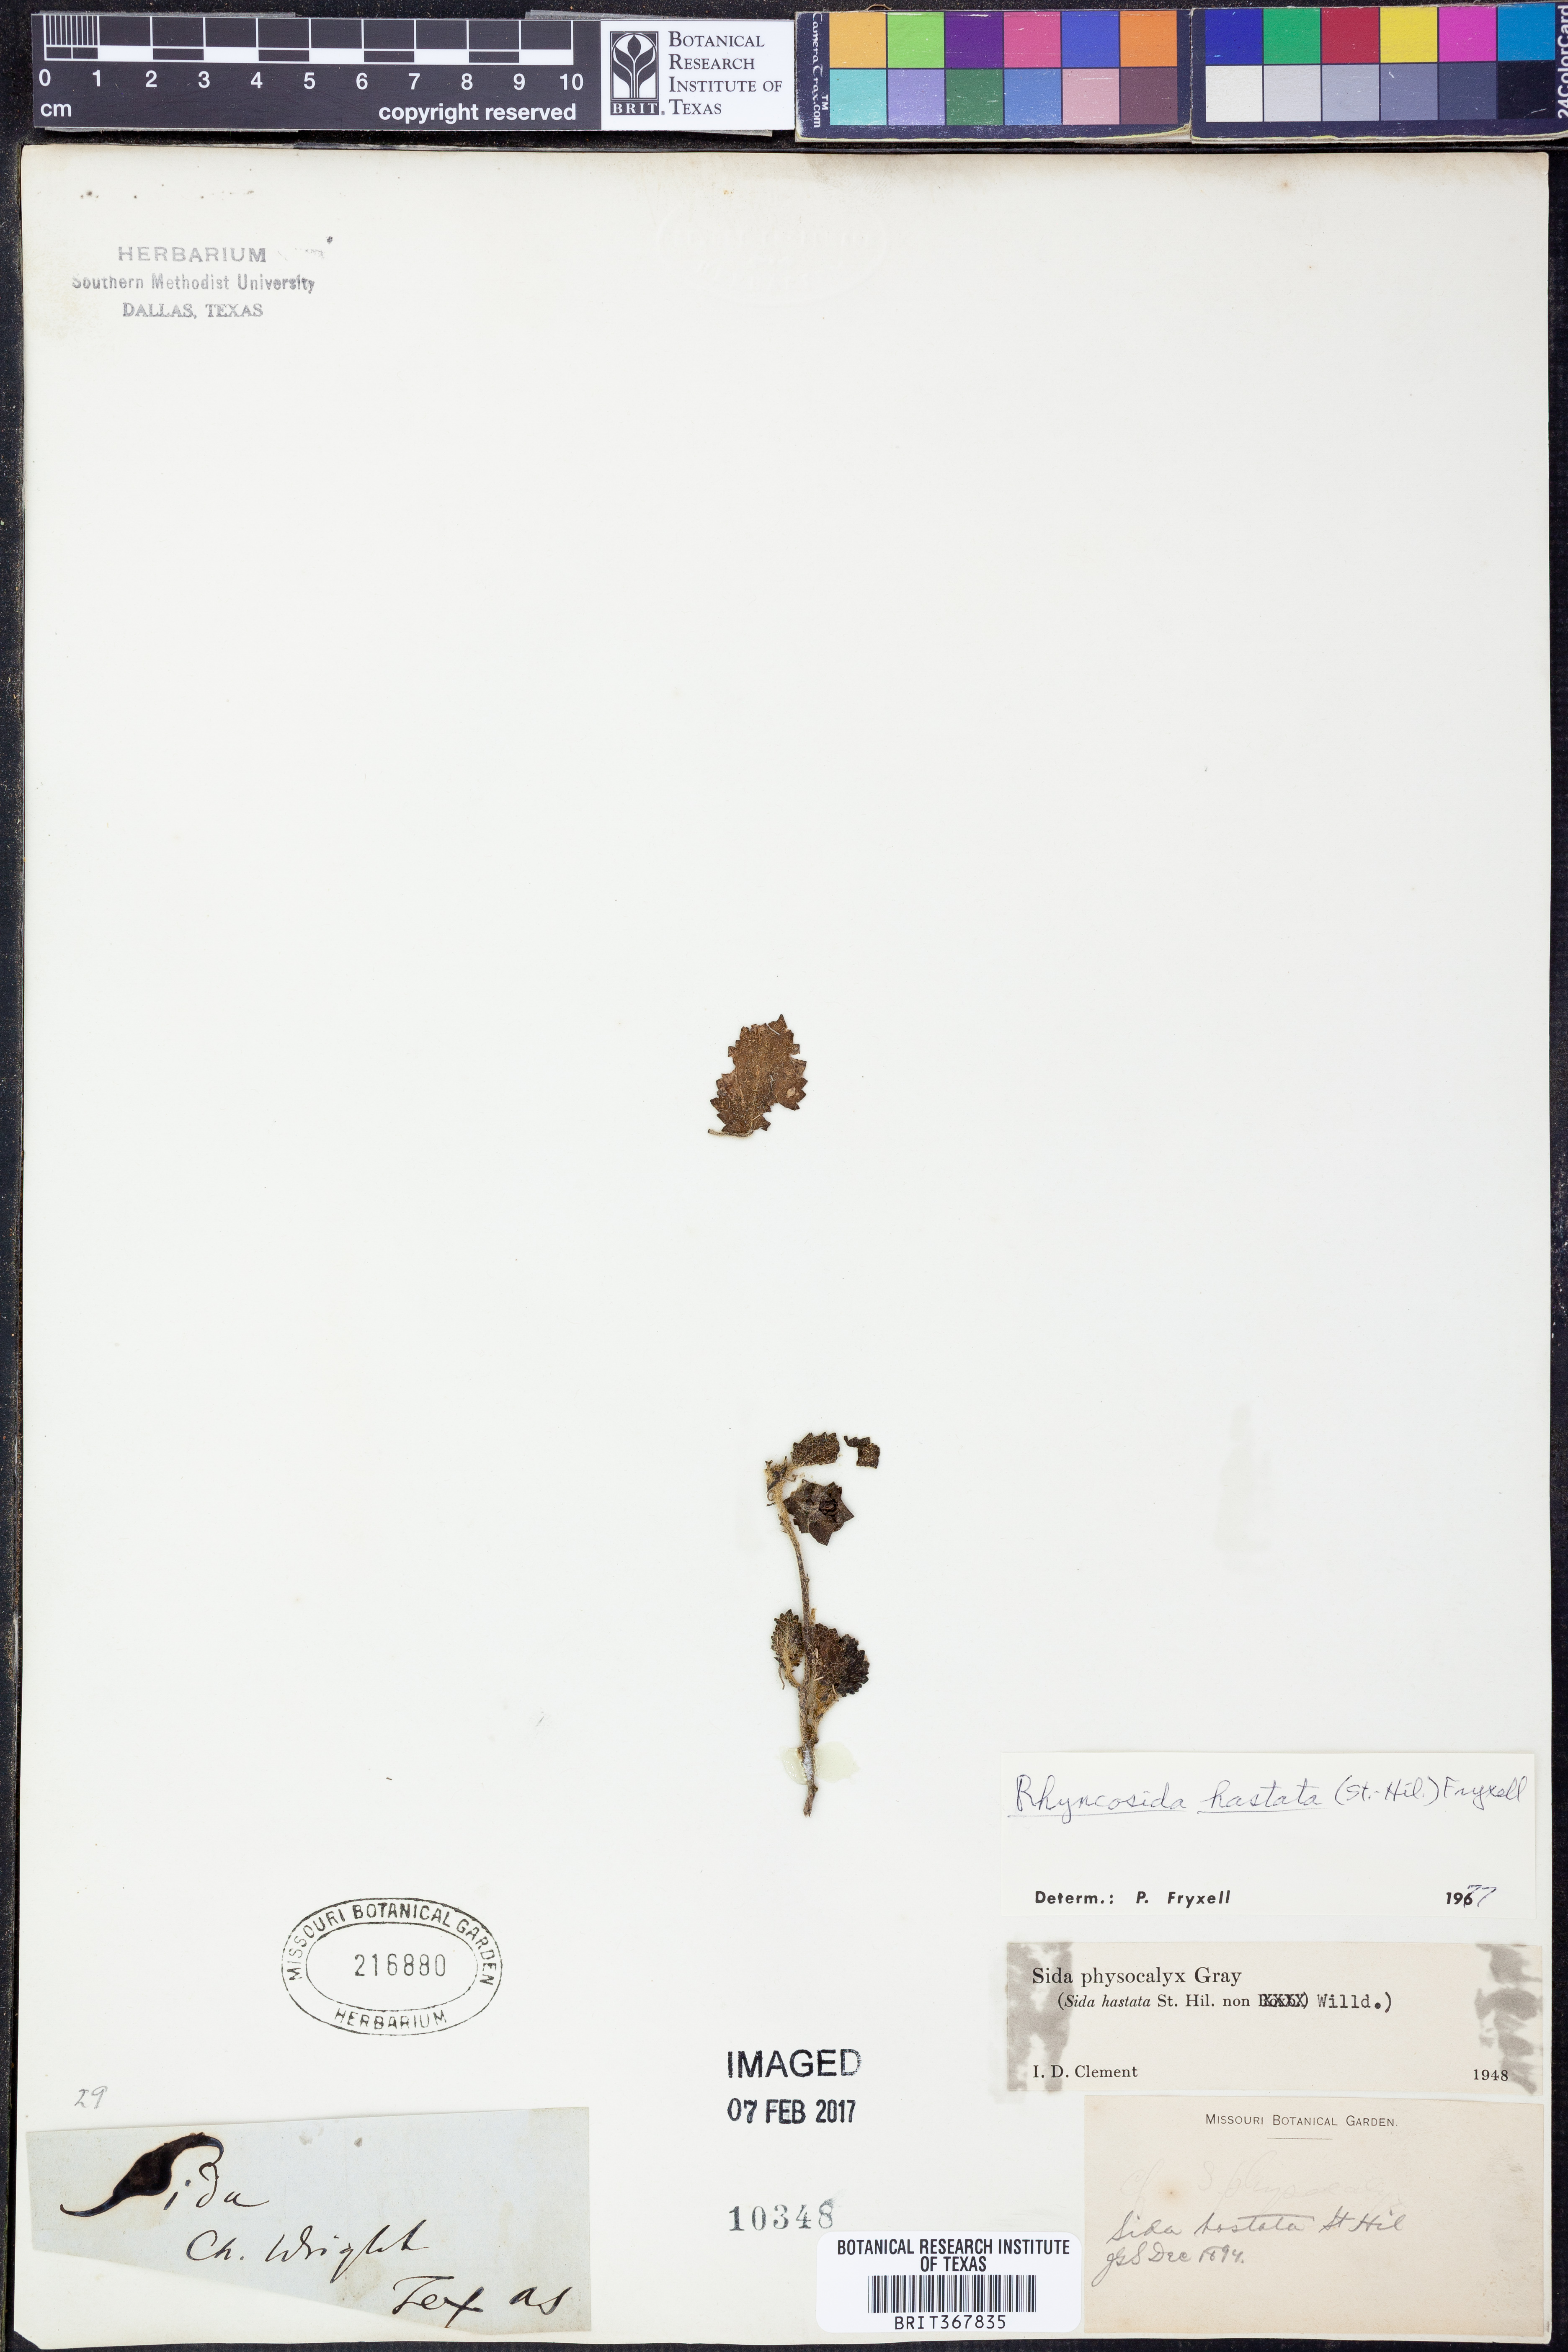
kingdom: Plantae
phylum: Tracheophyta
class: Magnoliopsida
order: Malvales
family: Malvaceae
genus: Rhynchosida
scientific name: Rhynchosida
